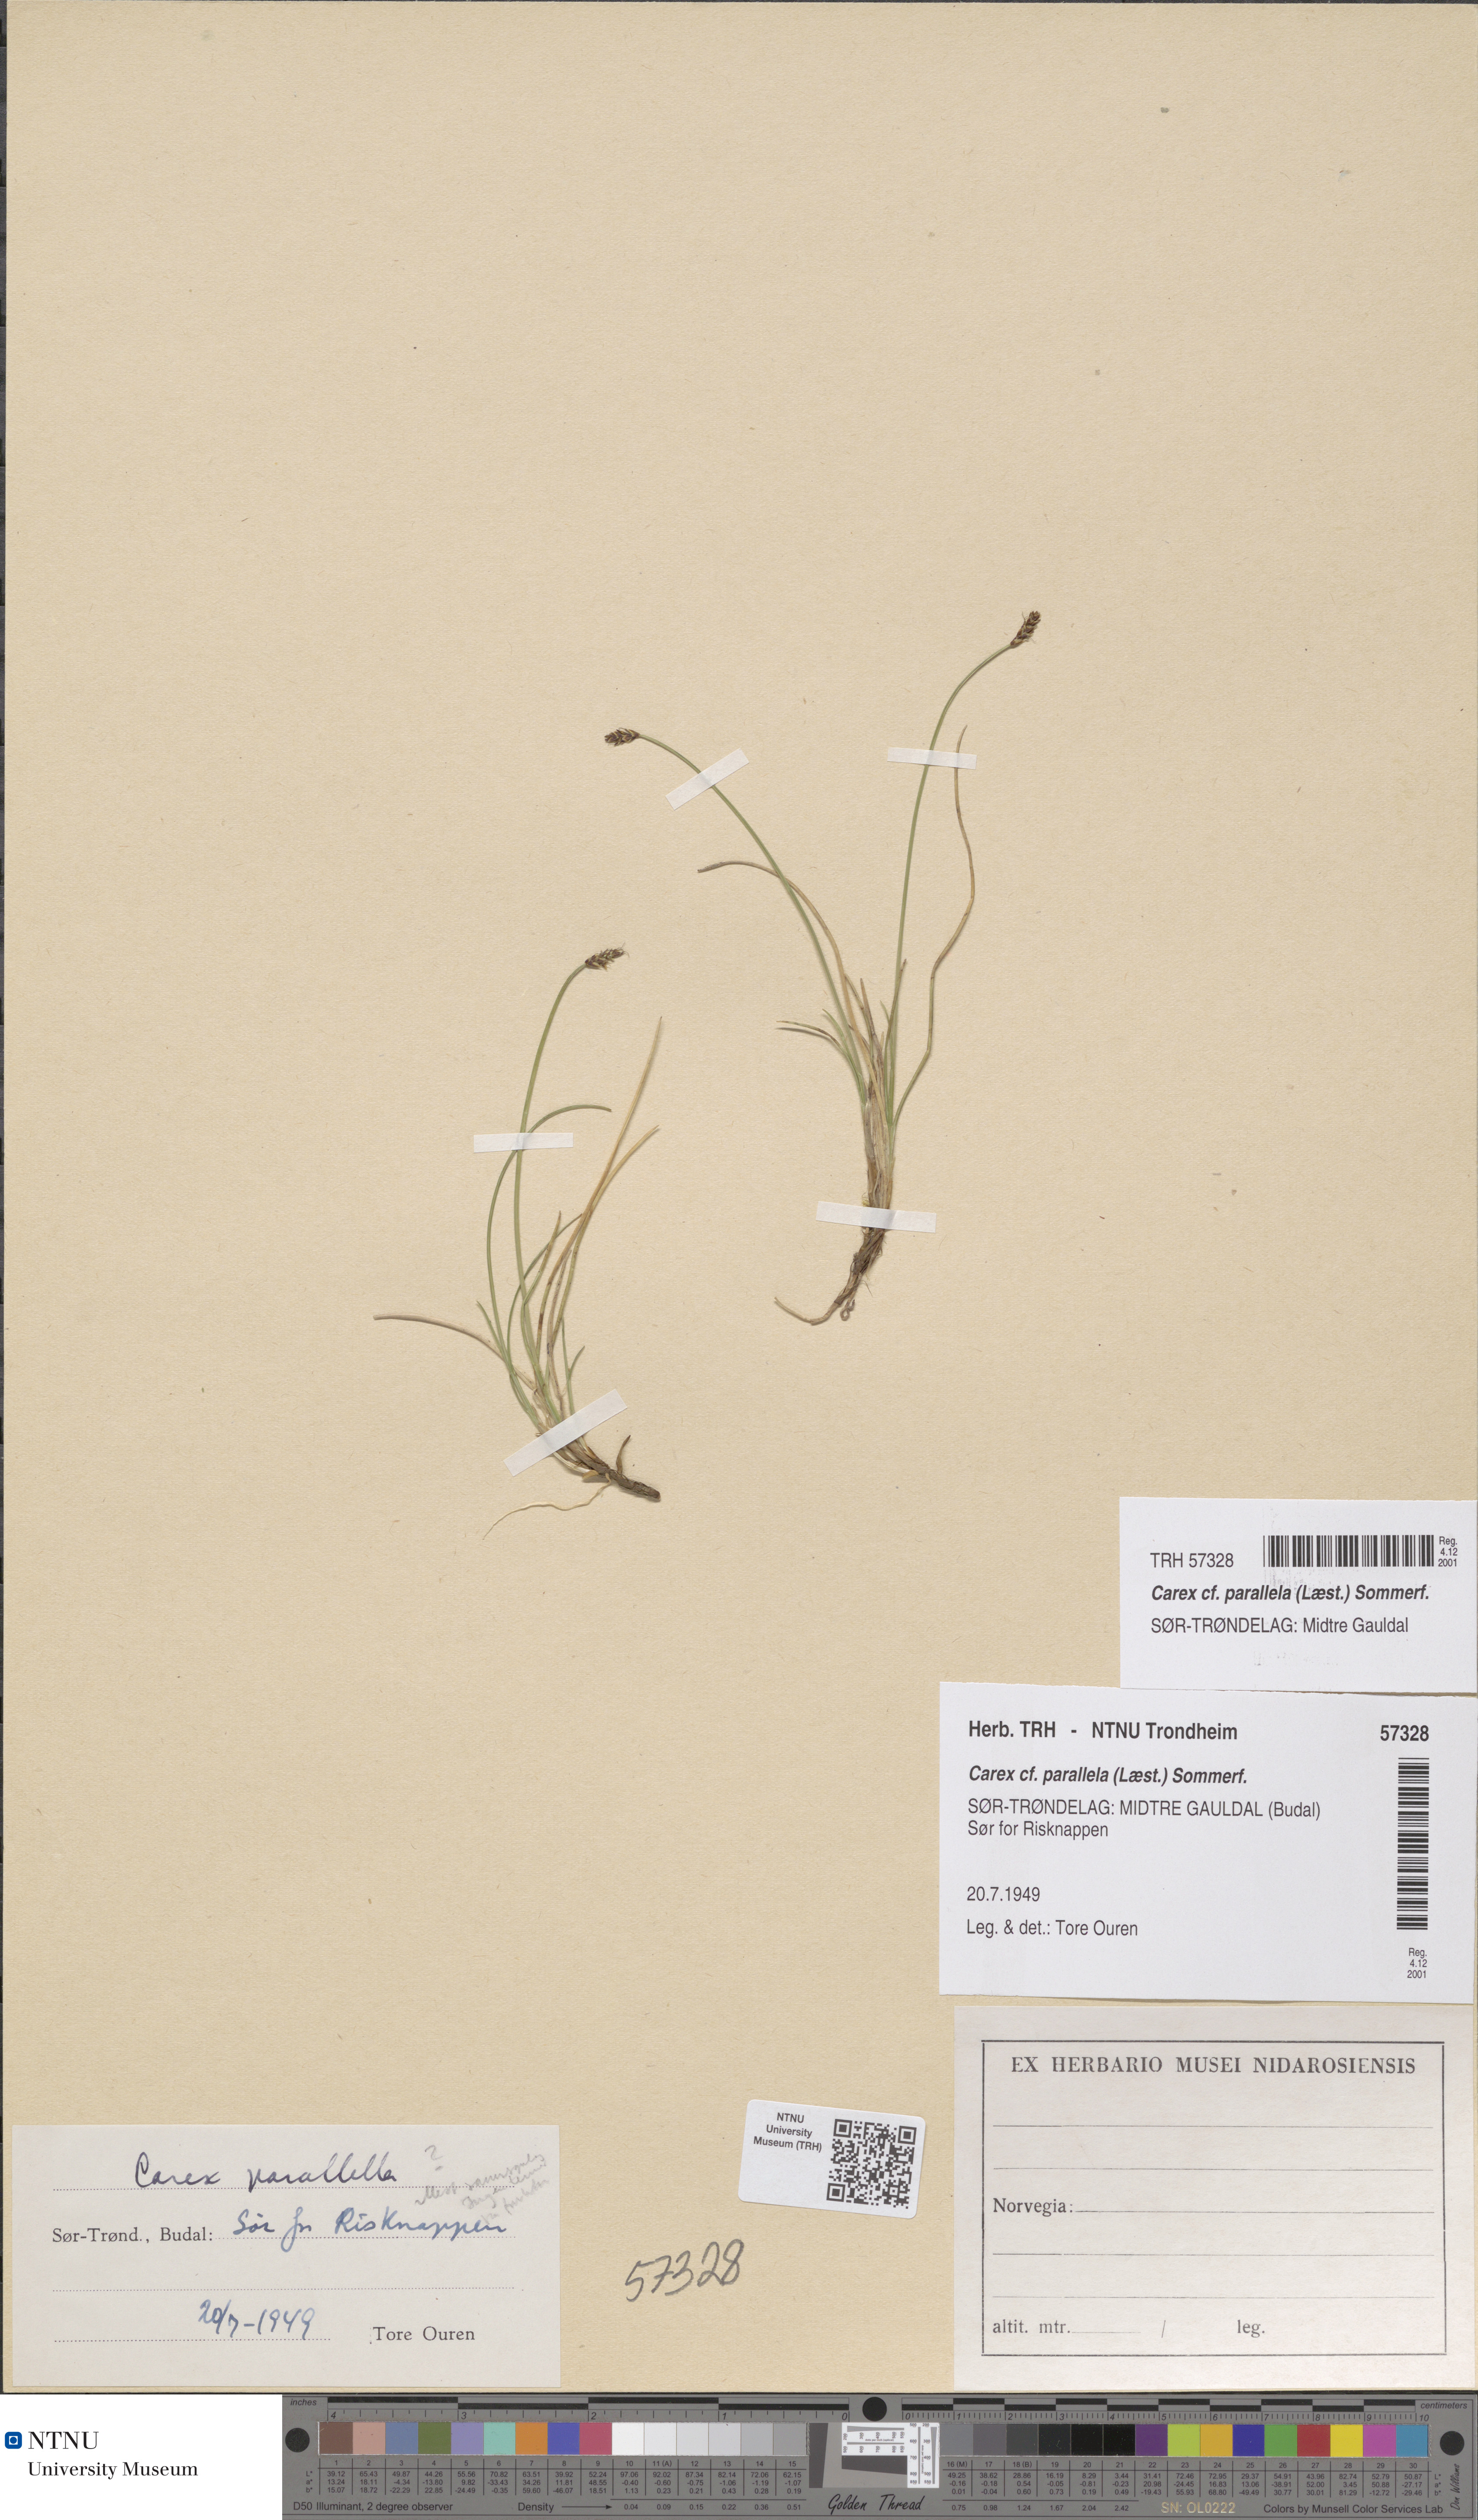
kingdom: Plantae
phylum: Tracheophyta
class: Liliopsida
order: Poales
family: Cyperaceae
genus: Carex
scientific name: Carex parallela
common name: Parallel sedge
